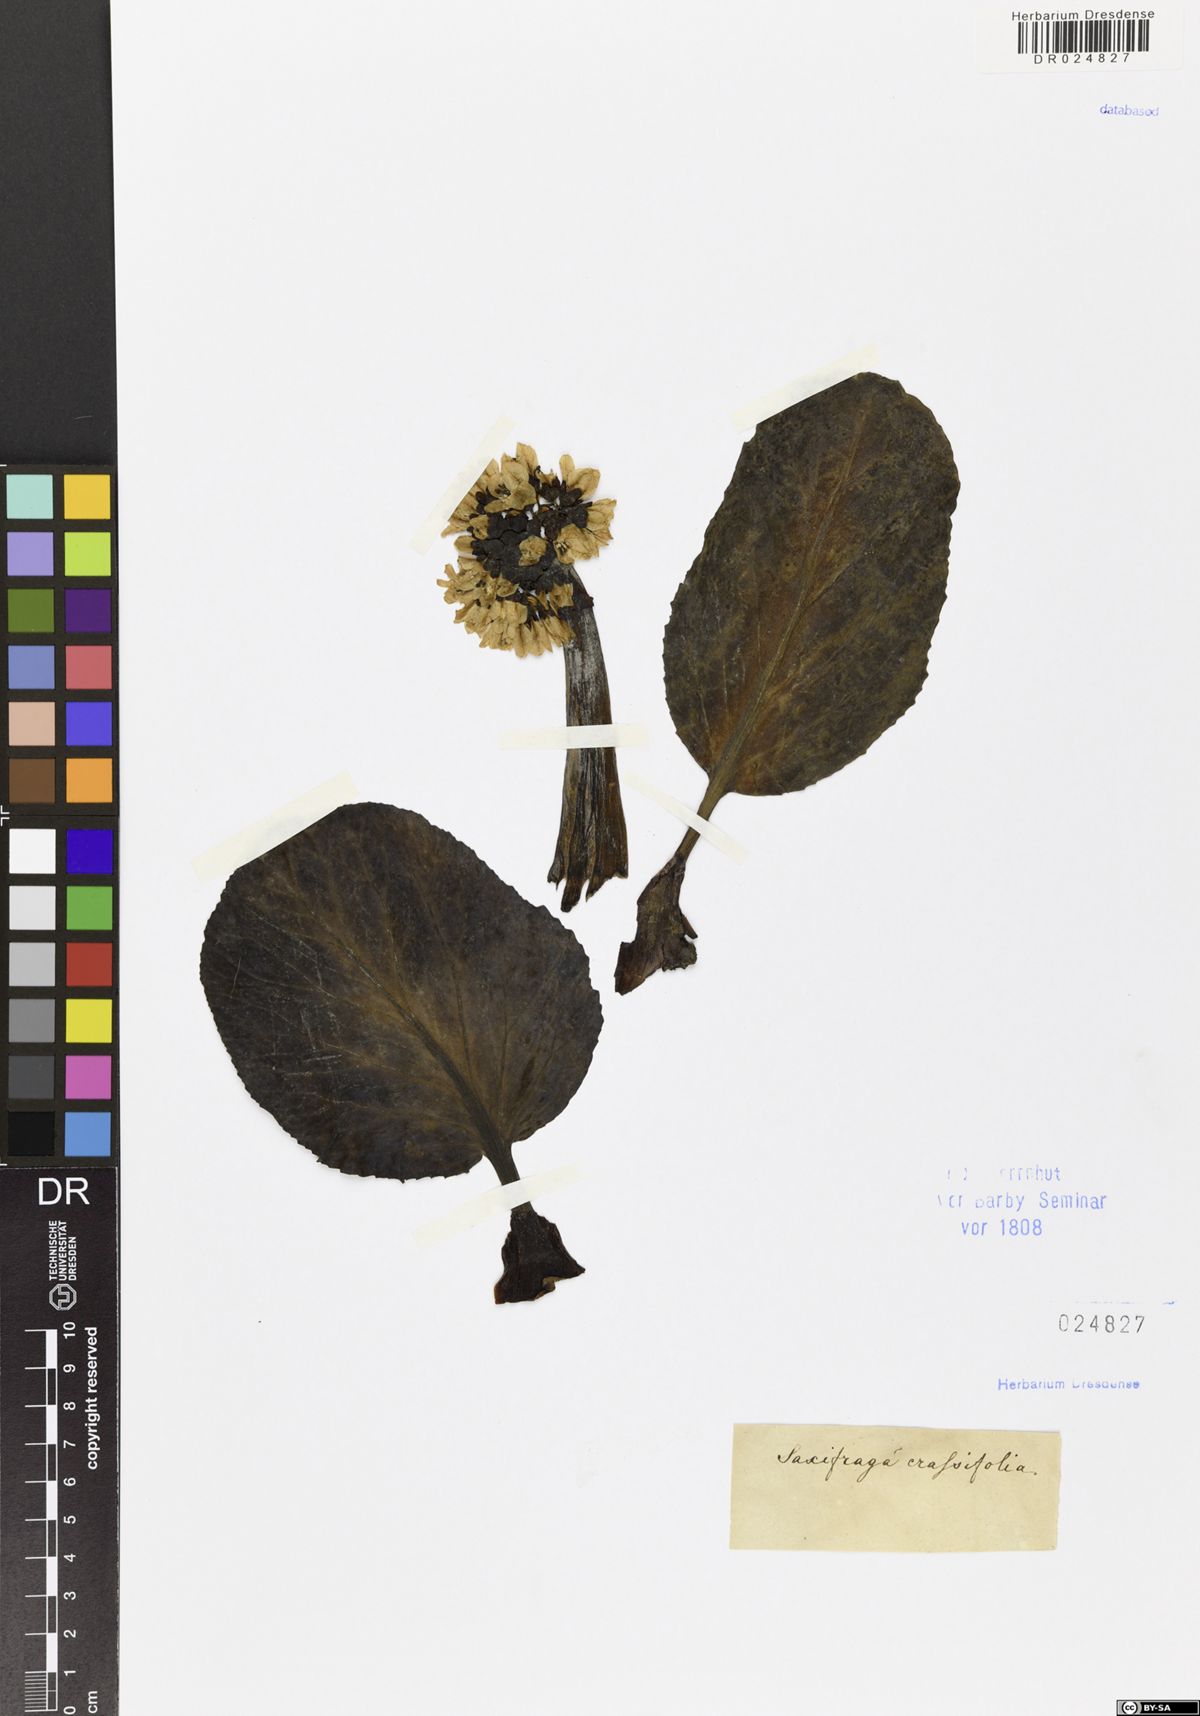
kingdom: Plantae
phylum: Tracheophyta
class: Magnoliopsida
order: Saxifragales
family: Saxifragaceae
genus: Bergenia
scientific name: Bergenia crassifolia
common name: Elephant-ears
